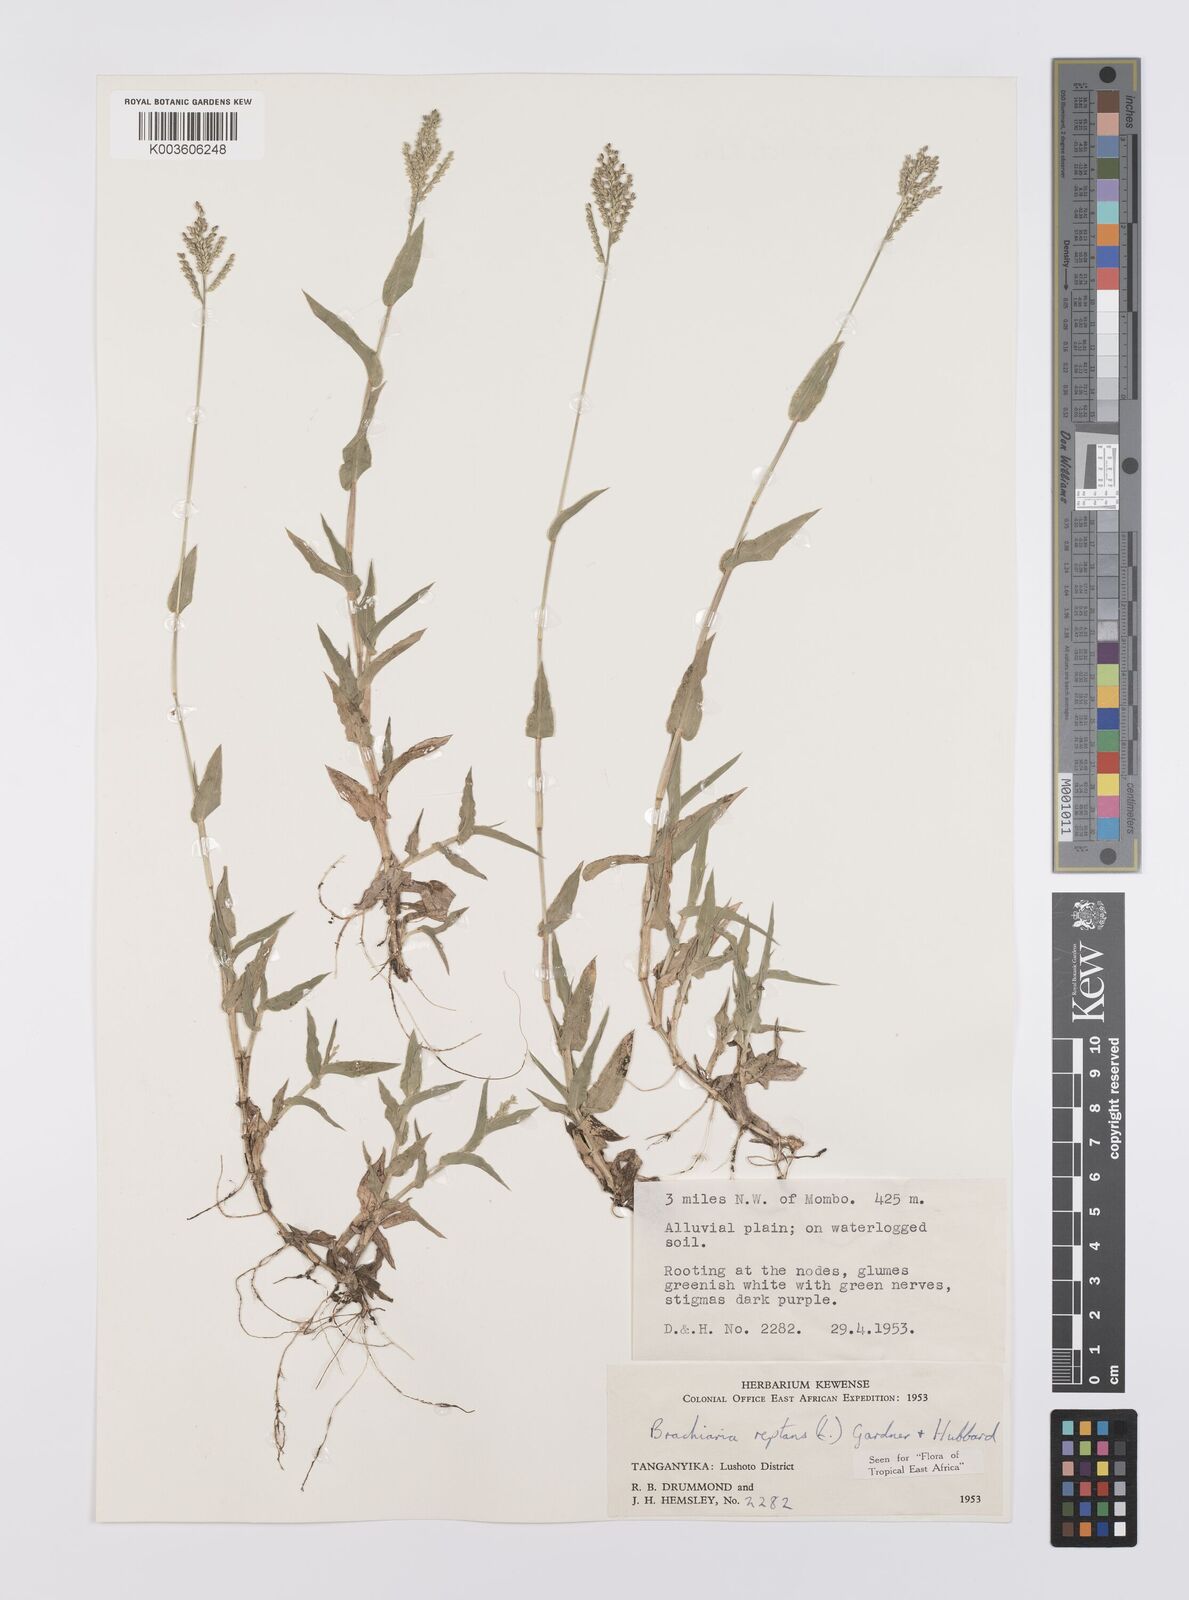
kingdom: Plantae
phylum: Tracheophyta
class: Liliopsida
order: Poales
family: Poaceae
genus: Urochloa
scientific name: Urochloa reptans
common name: Sprawling signalgrass
